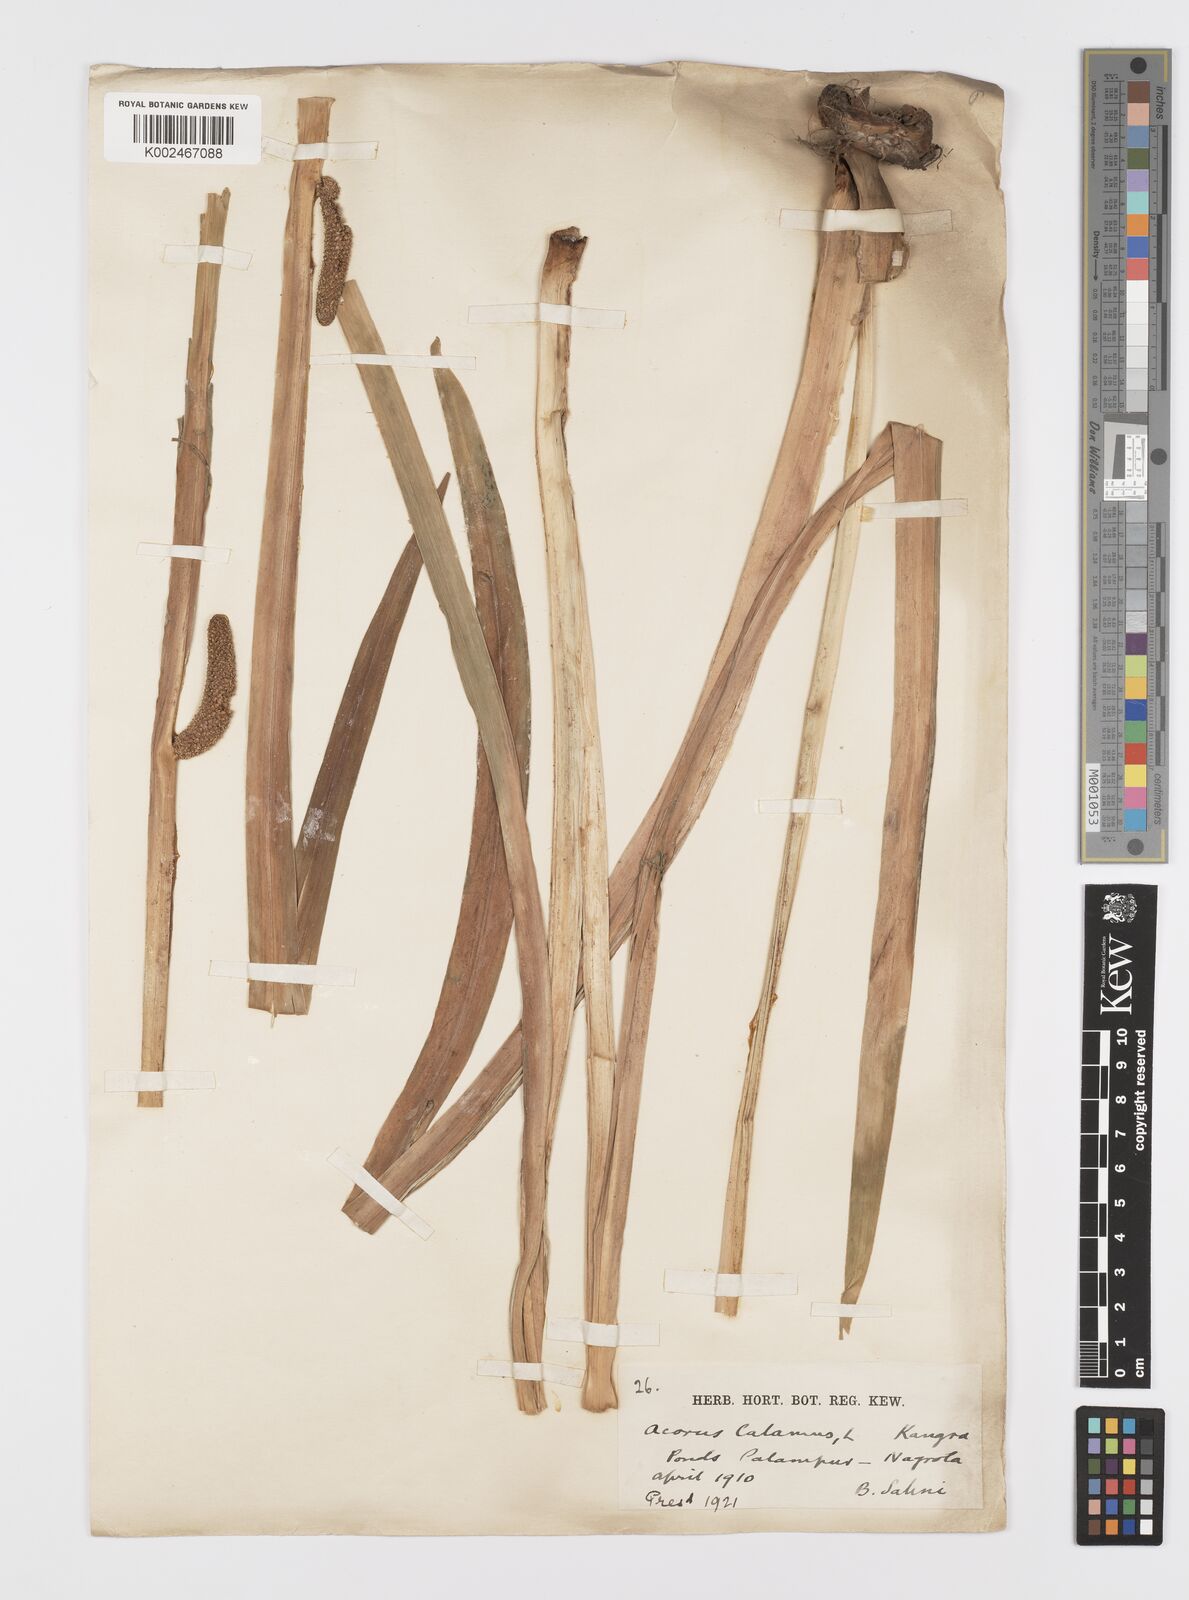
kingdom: Plantae
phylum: Tracheophyta
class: Liliopsida
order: Acorales
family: Acoraceae
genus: Acorus
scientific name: Acorus calamus
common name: Sweet-flag
